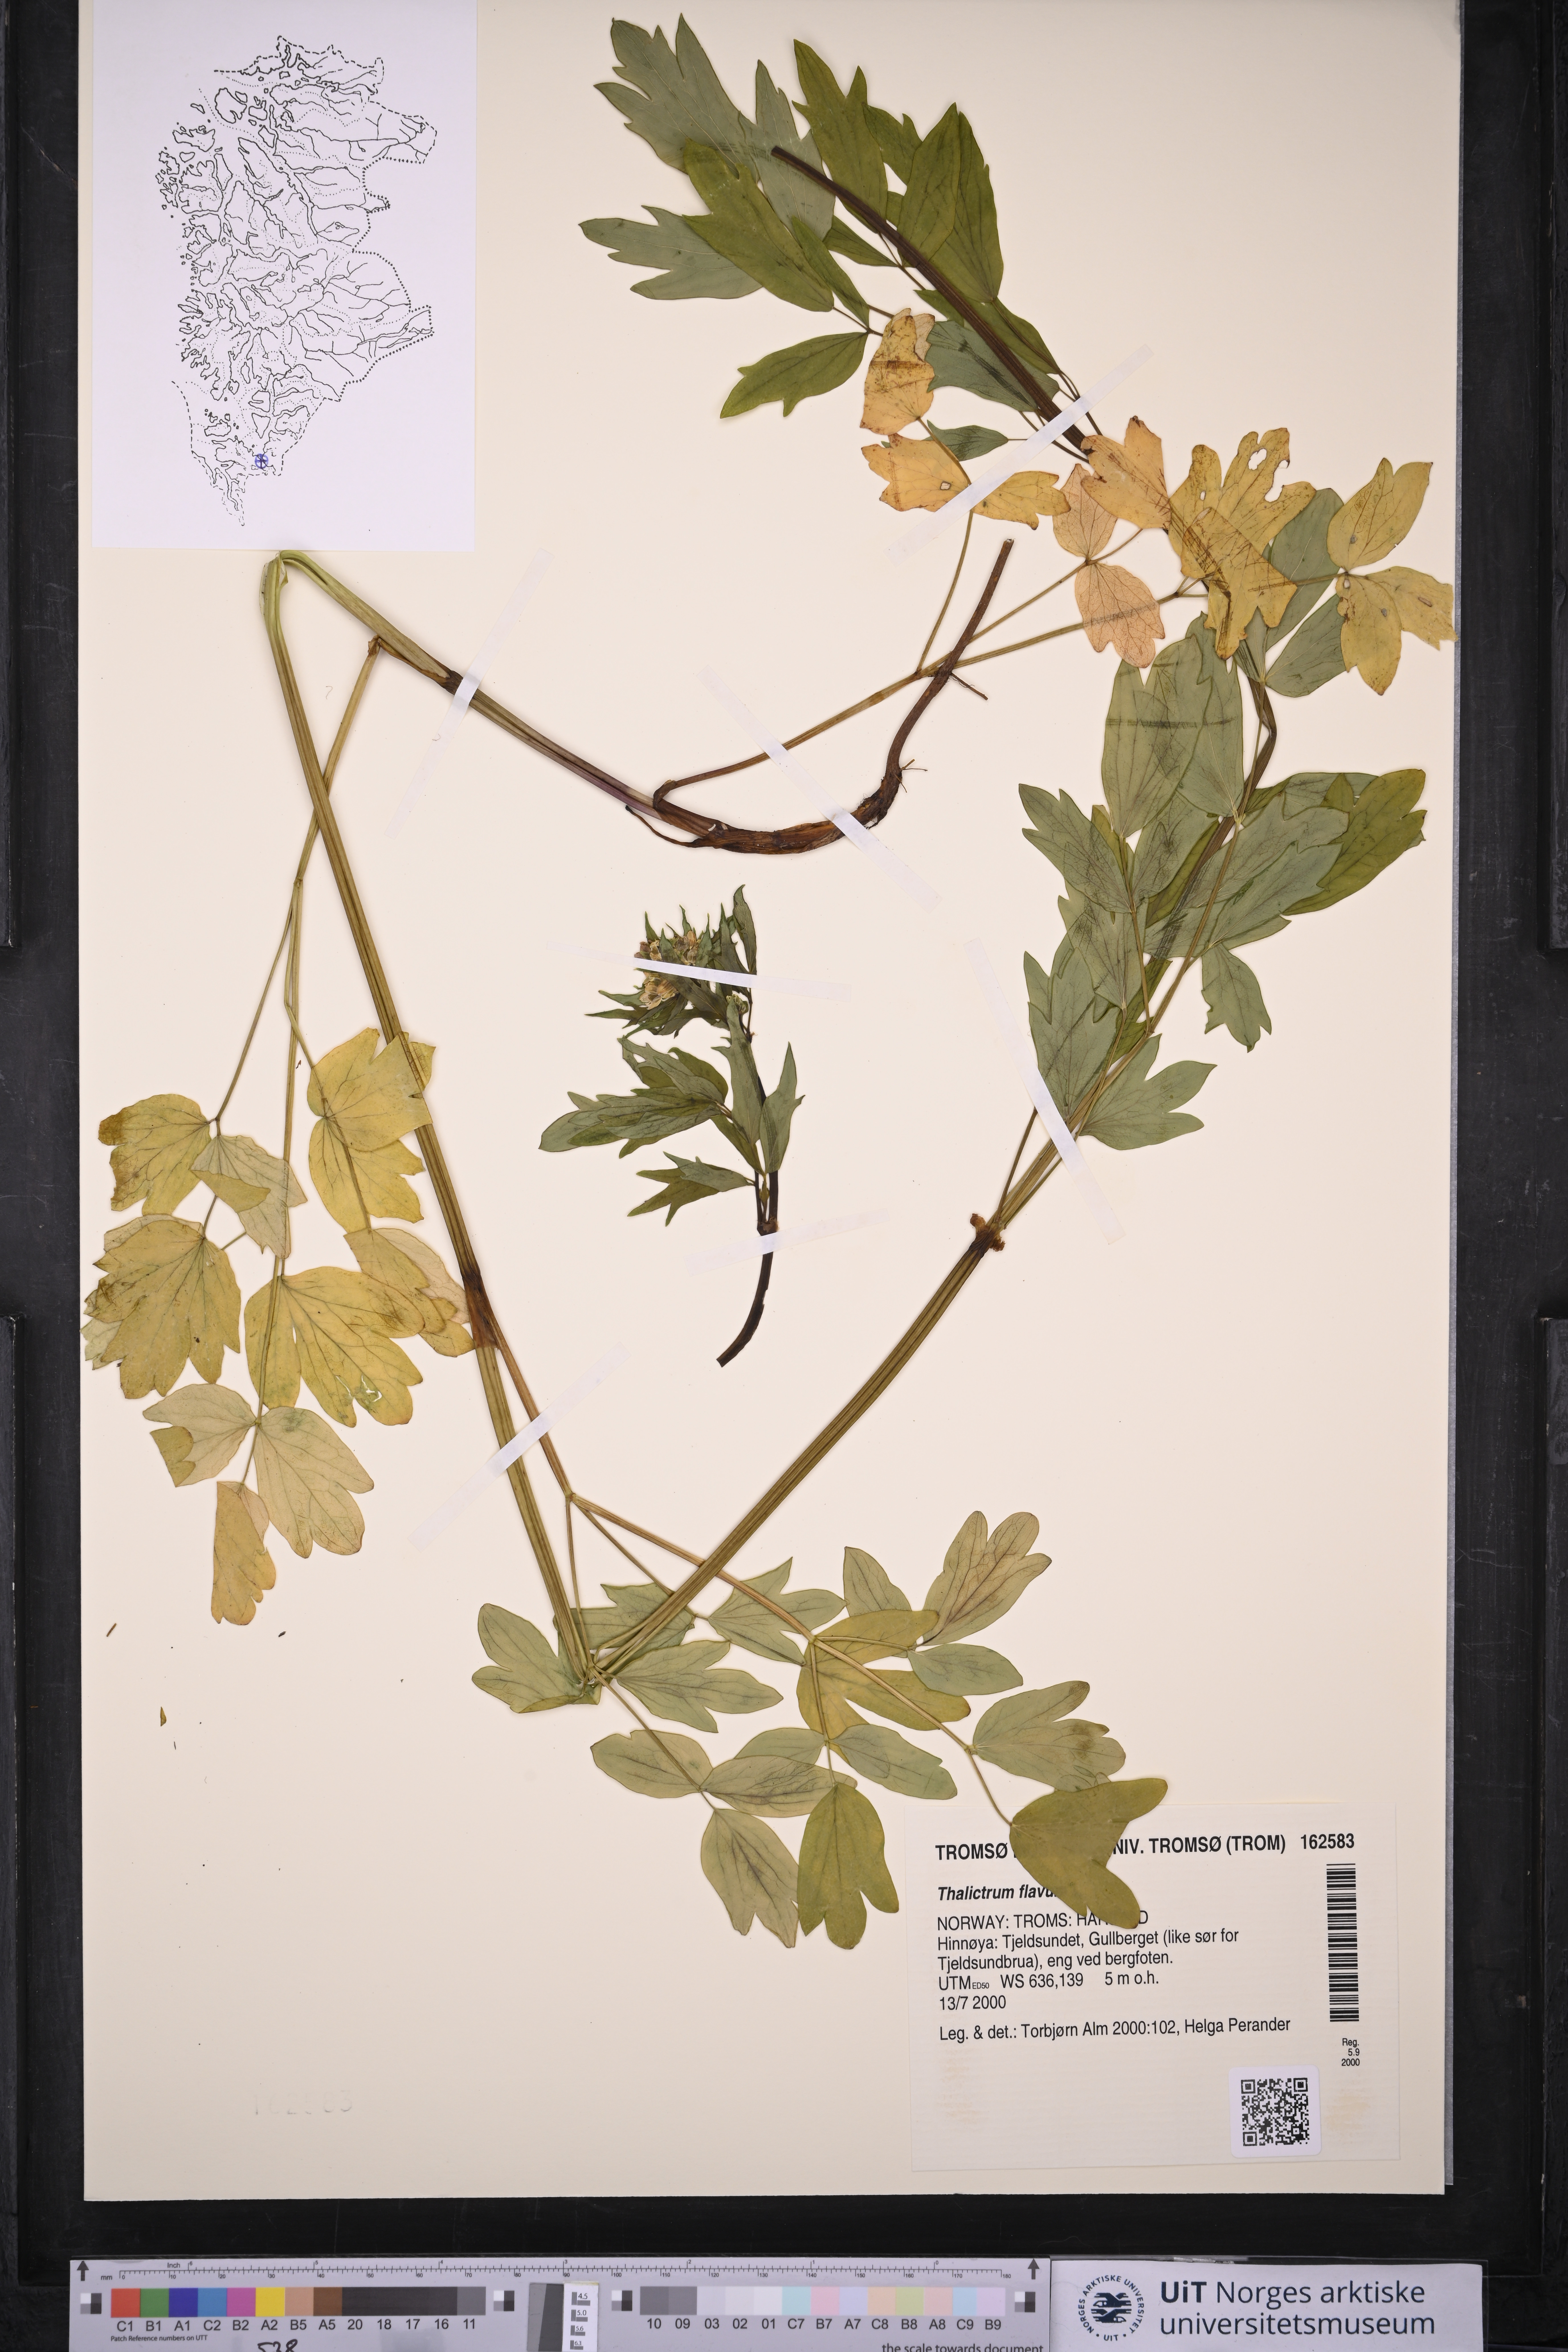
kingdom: Plantae
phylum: Tracheophyta
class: Magnoliopsida
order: Ranunculales
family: Ranunculaceae
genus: Thalictrum
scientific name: Thalictrum flavum
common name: Common meadow-rue
